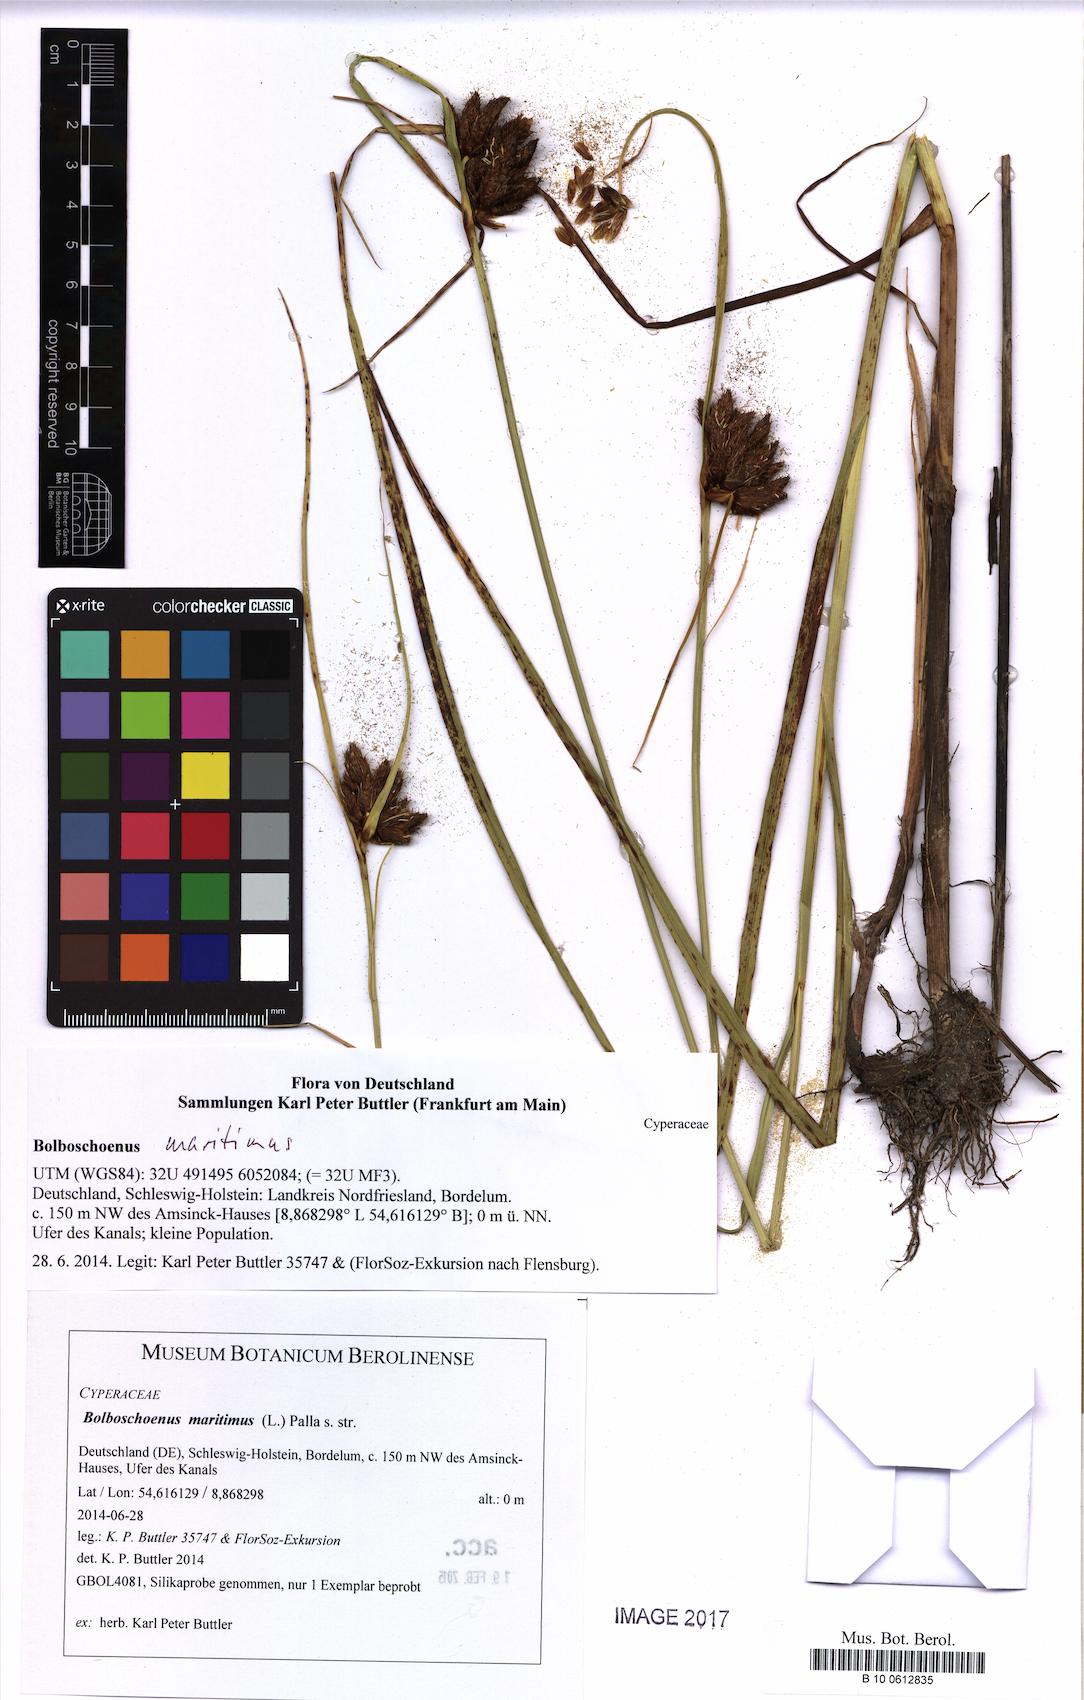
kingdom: Plantae
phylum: Tracheophyta
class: Liliopsida
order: Poales
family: Cyperaceae
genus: Bolboschoenus
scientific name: Bolboschoenus maritimus
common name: Sea club-rush
